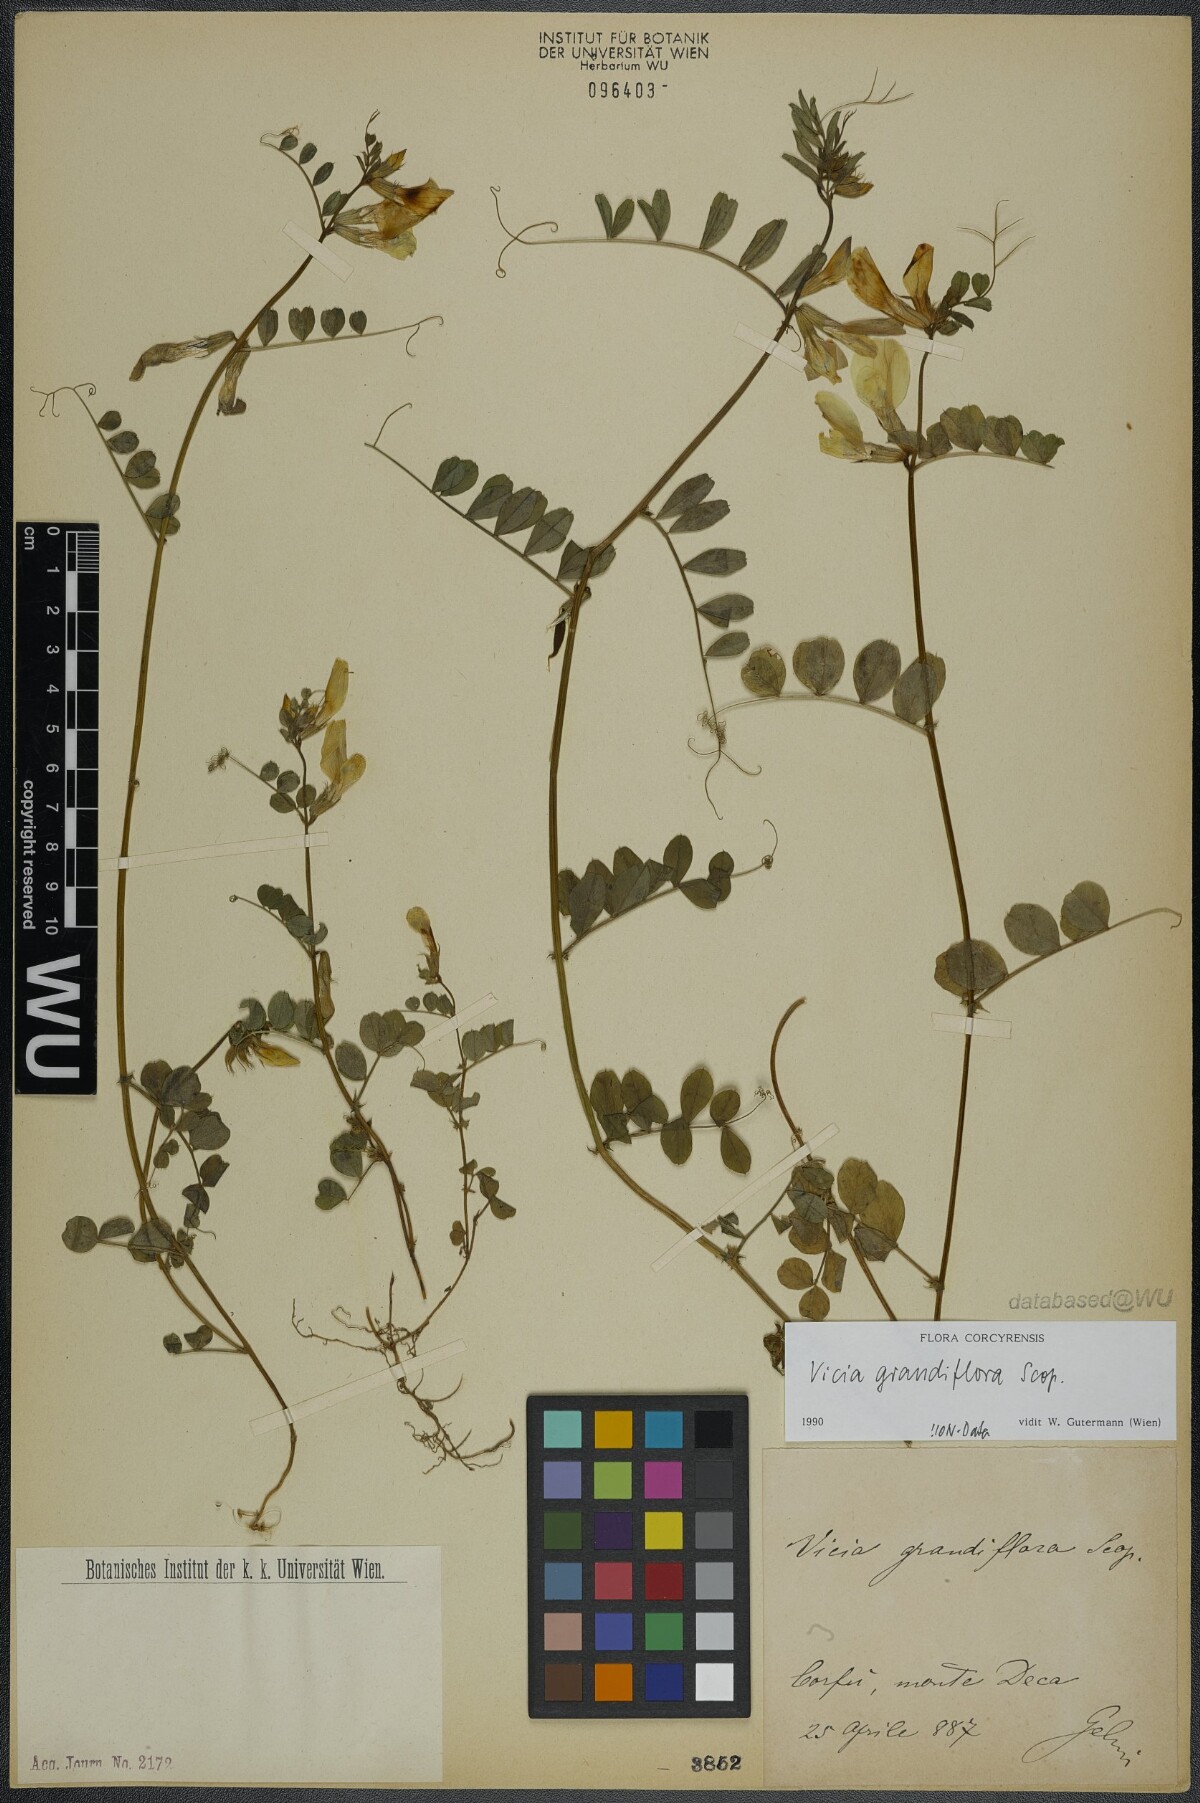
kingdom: Plantae
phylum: Tracheophyta
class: Magnoliopsida
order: Fabales
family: Fabaceae
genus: Vicia
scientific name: Vicia grandiflora
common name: Large yellow vetch
